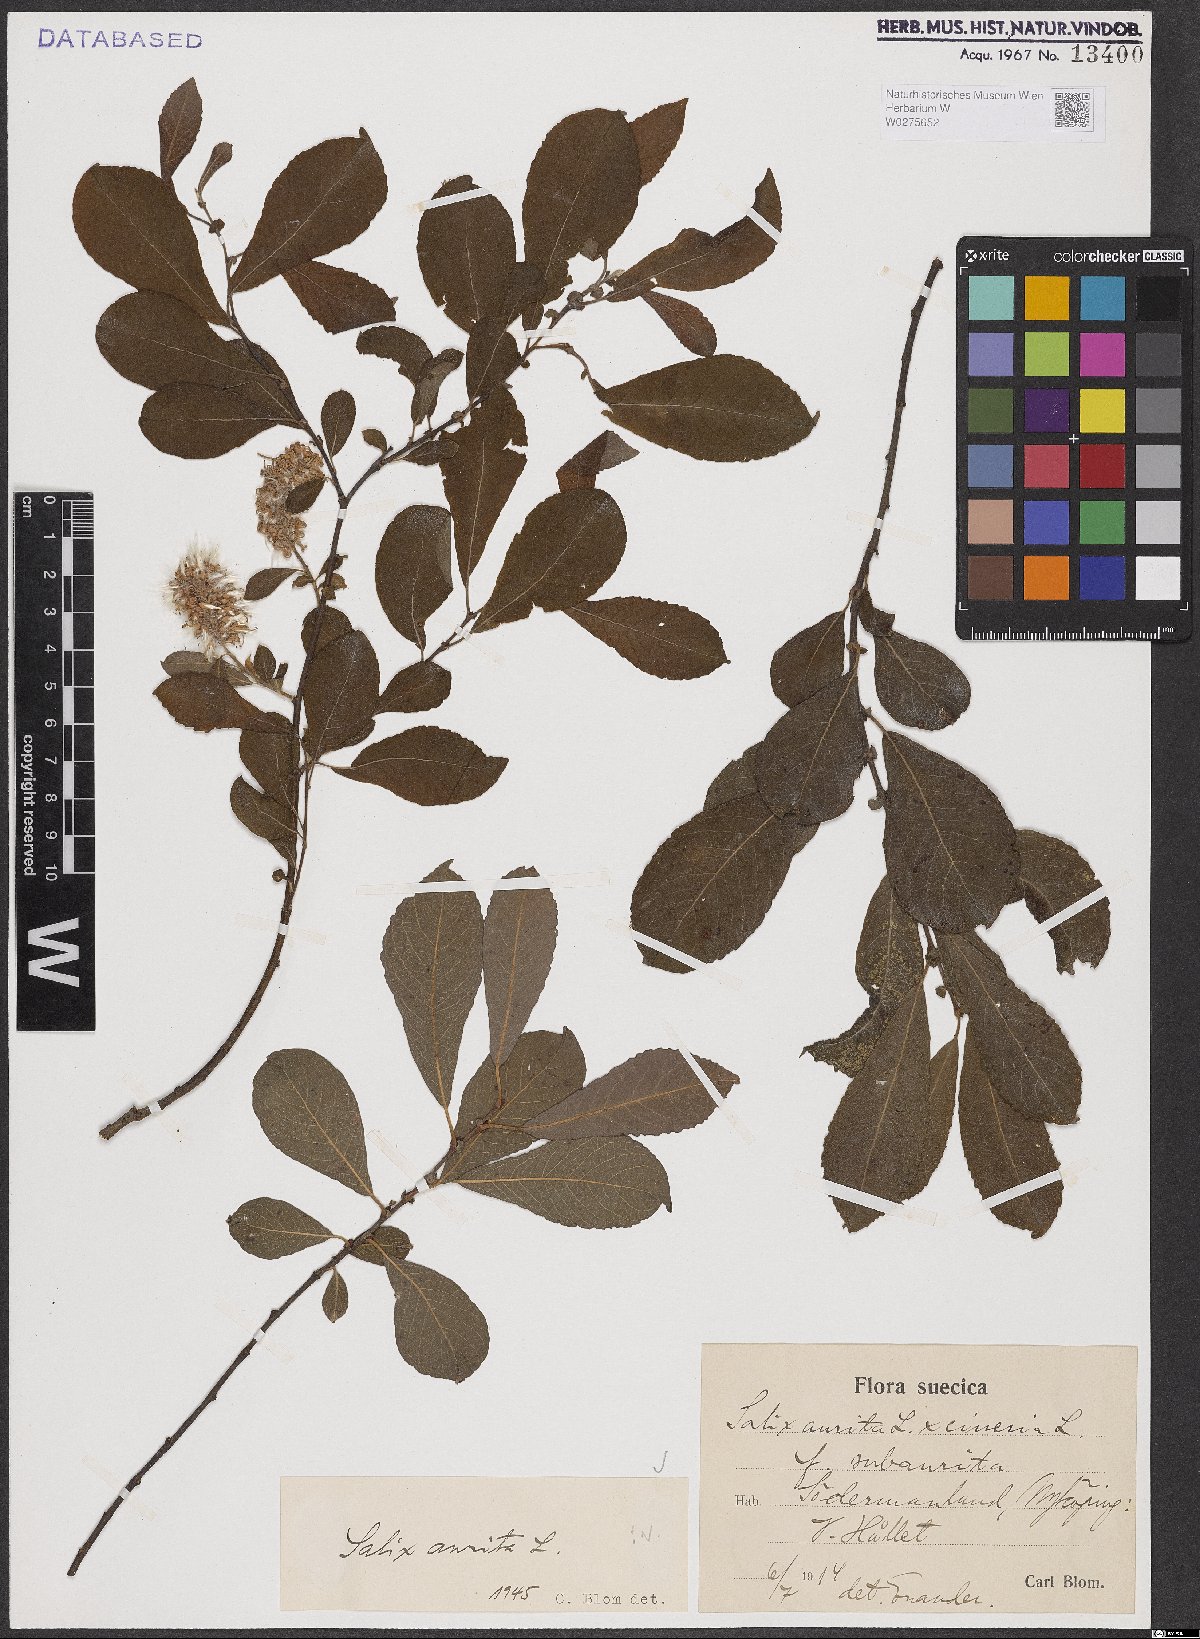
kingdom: Plantae
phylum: Tracheophyta
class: Magnoliopsida
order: Malpighiales
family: Salicaceae
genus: Salix
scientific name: Salix aurita
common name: Eared willow
